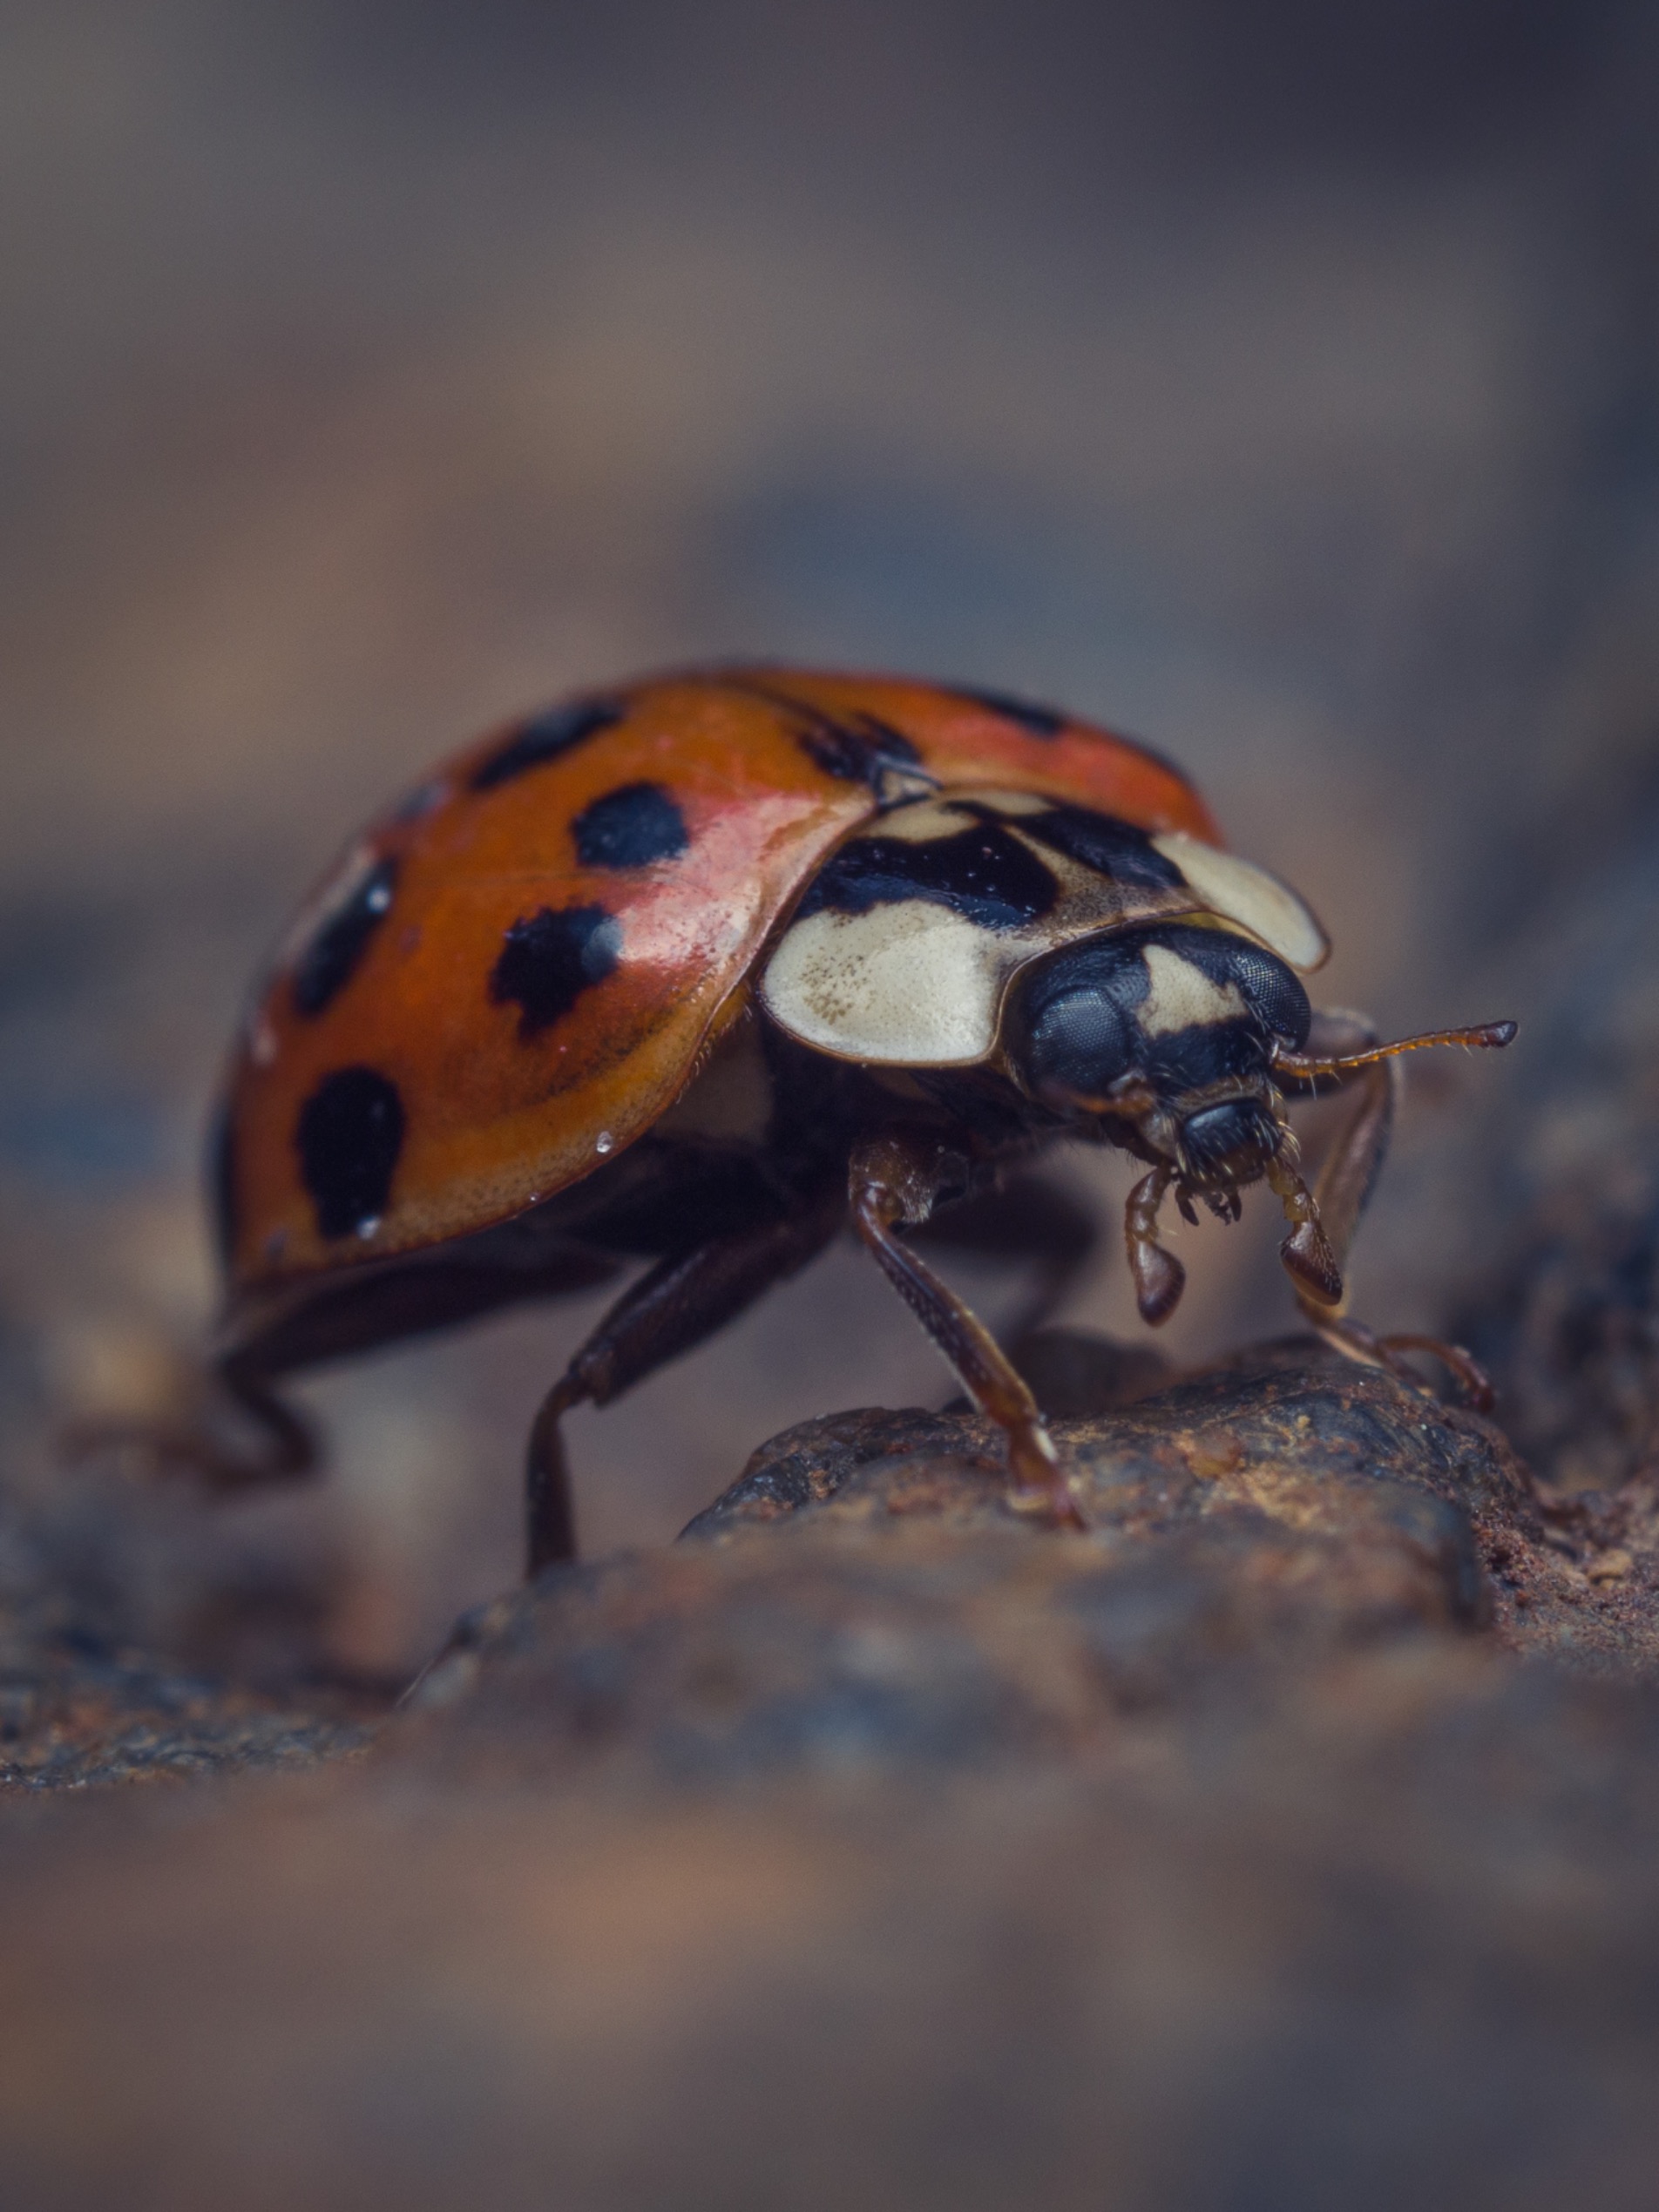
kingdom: Animalia
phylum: Arthropoda
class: Insecta
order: Coleoptera
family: Coccinellidae
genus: Harmonia
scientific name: Harmonia axyridis
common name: Harlekinmariehøne
